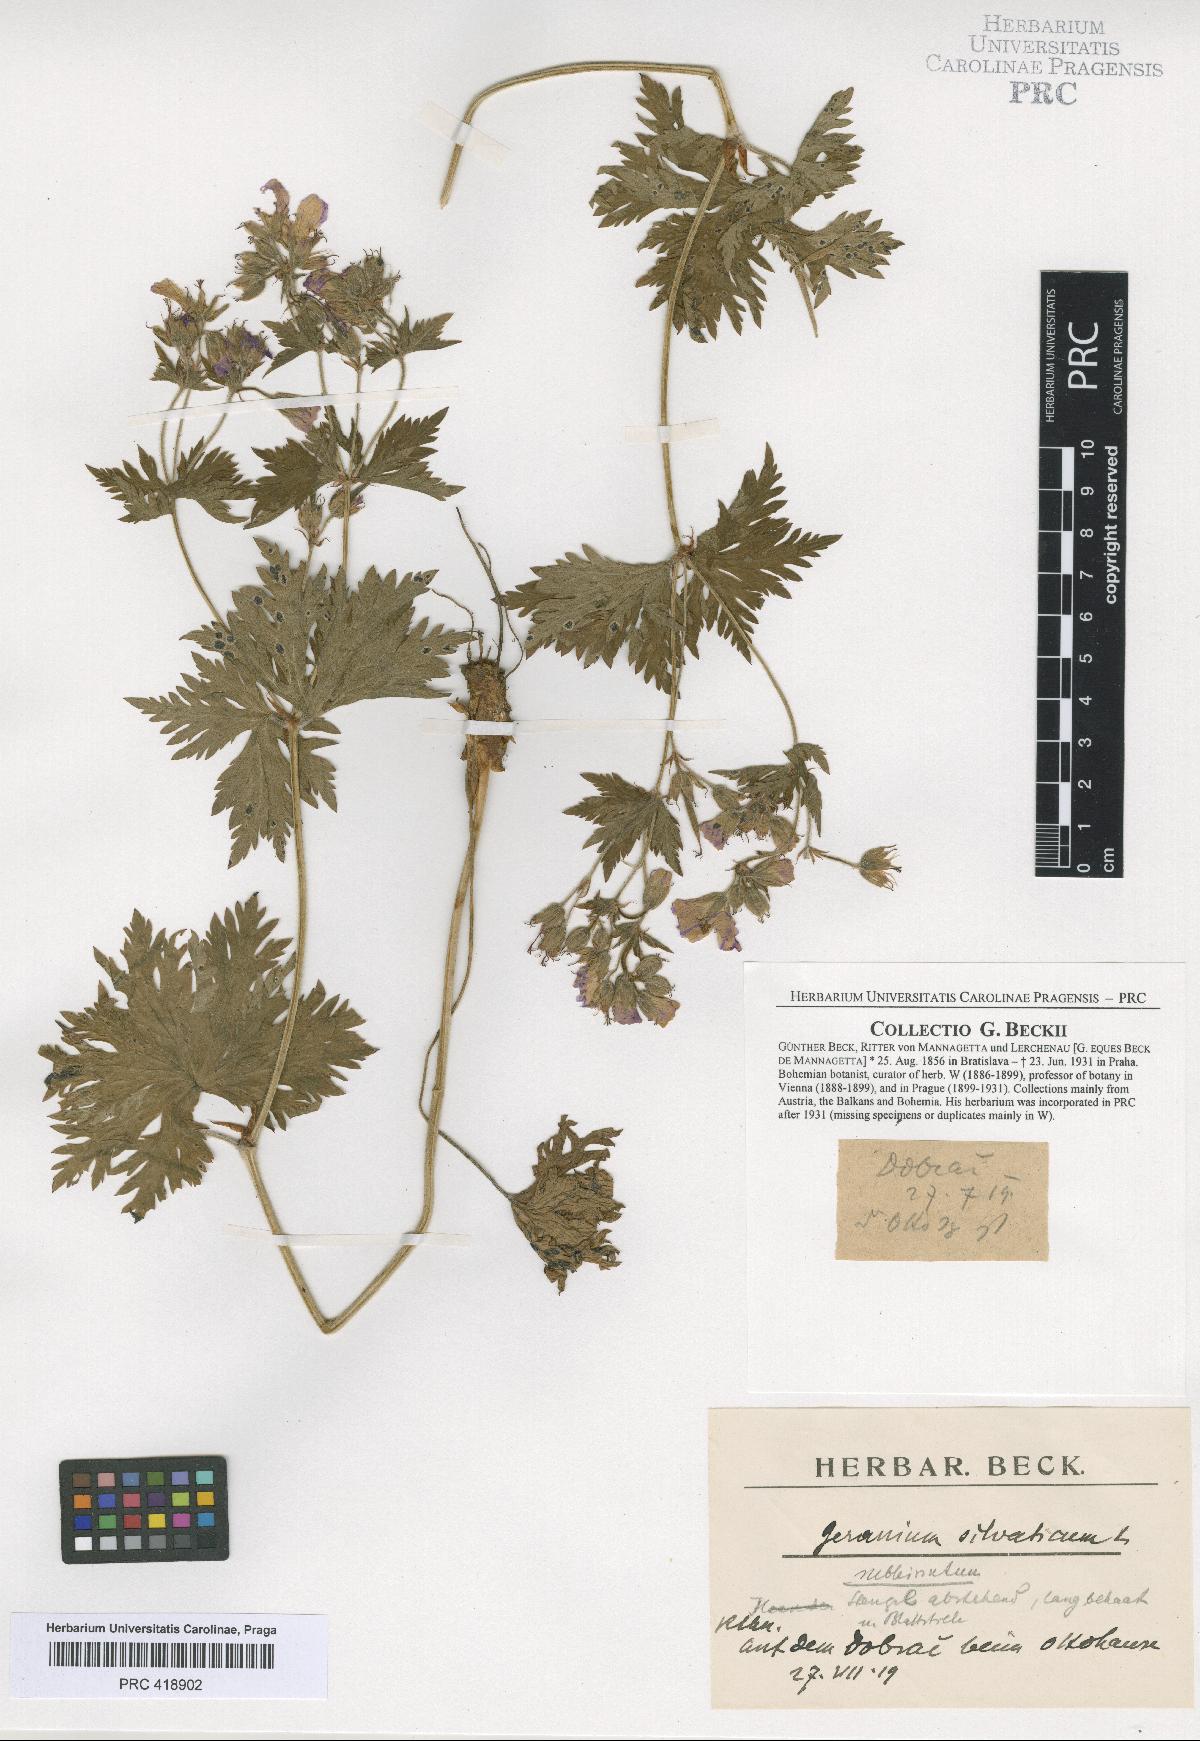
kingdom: Plantae
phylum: Tracheophyta
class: Magnoliopsida
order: Geraniales
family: Geraniaceae
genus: Geranium
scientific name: Geranium sylvaticum
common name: Wood crane's-bill
